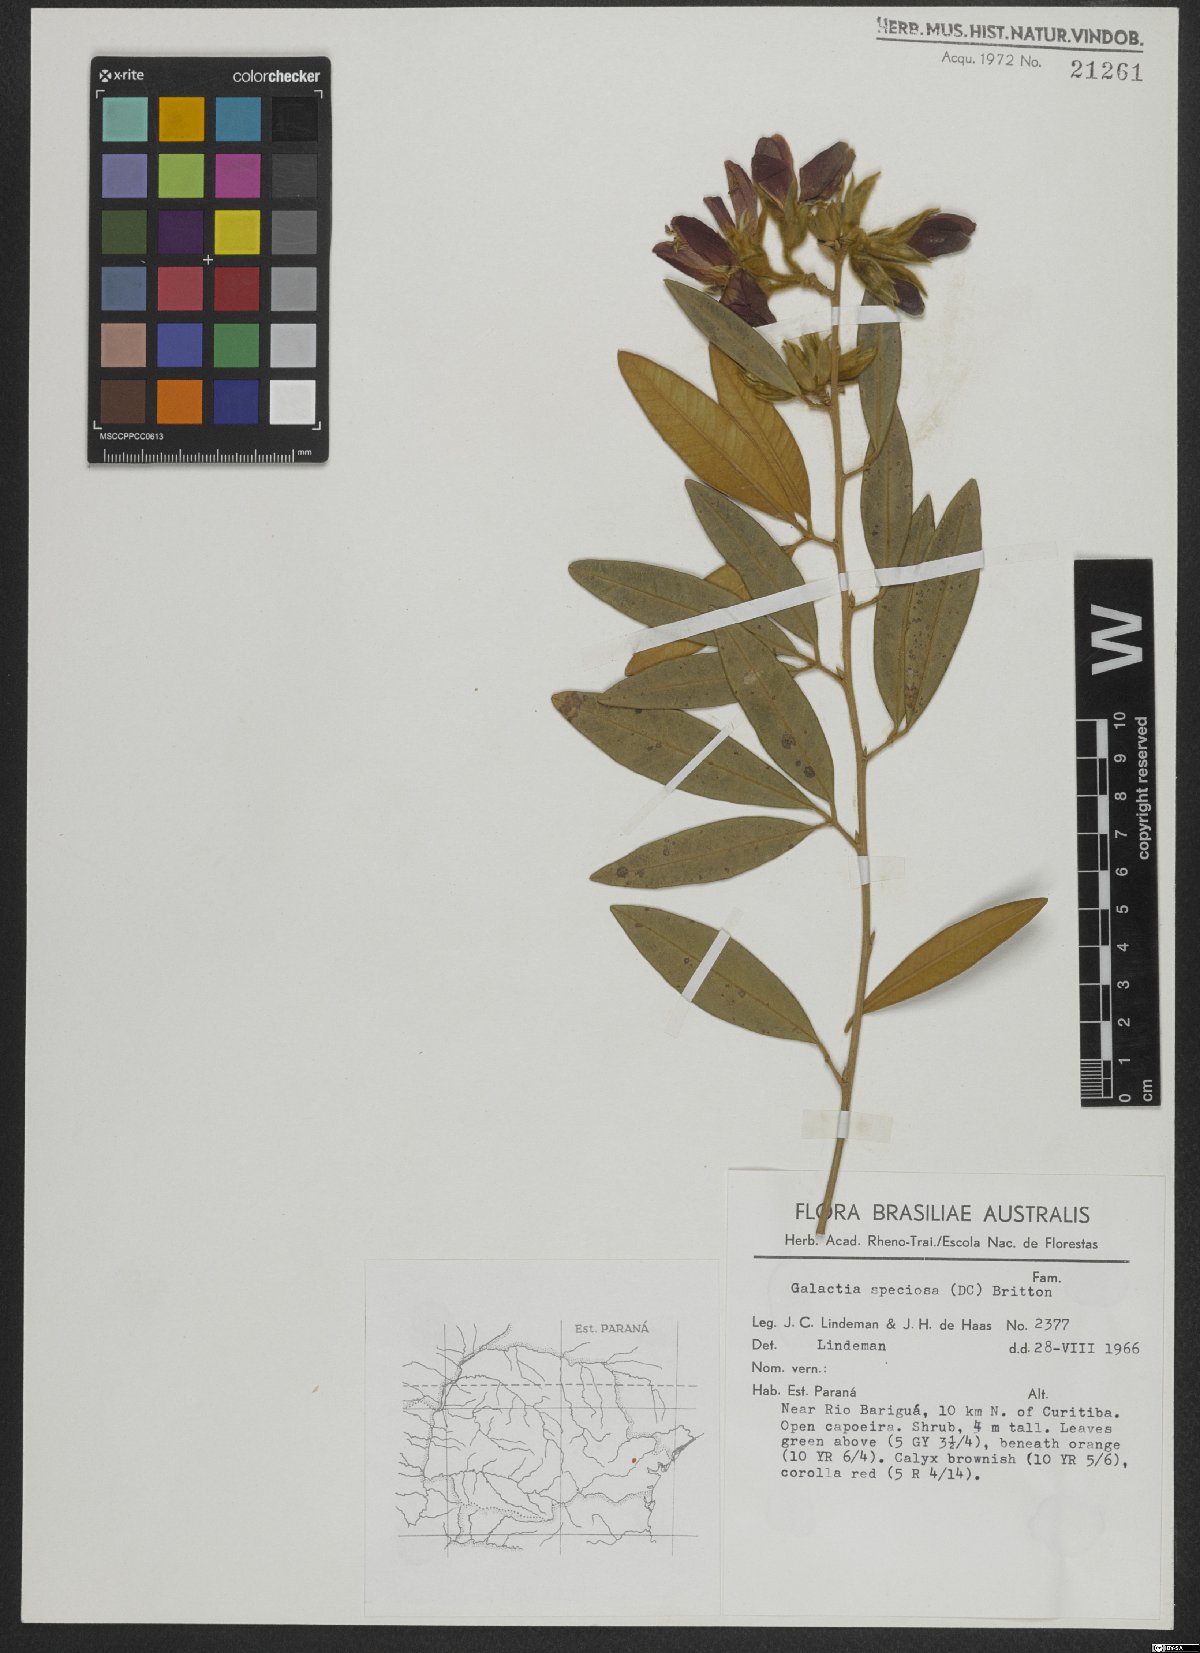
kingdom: Plantae
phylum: Tracheophyta
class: Magnoliopsida
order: Fabales
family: Fabaceae
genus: Collaea
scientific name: Collaea speciosa
